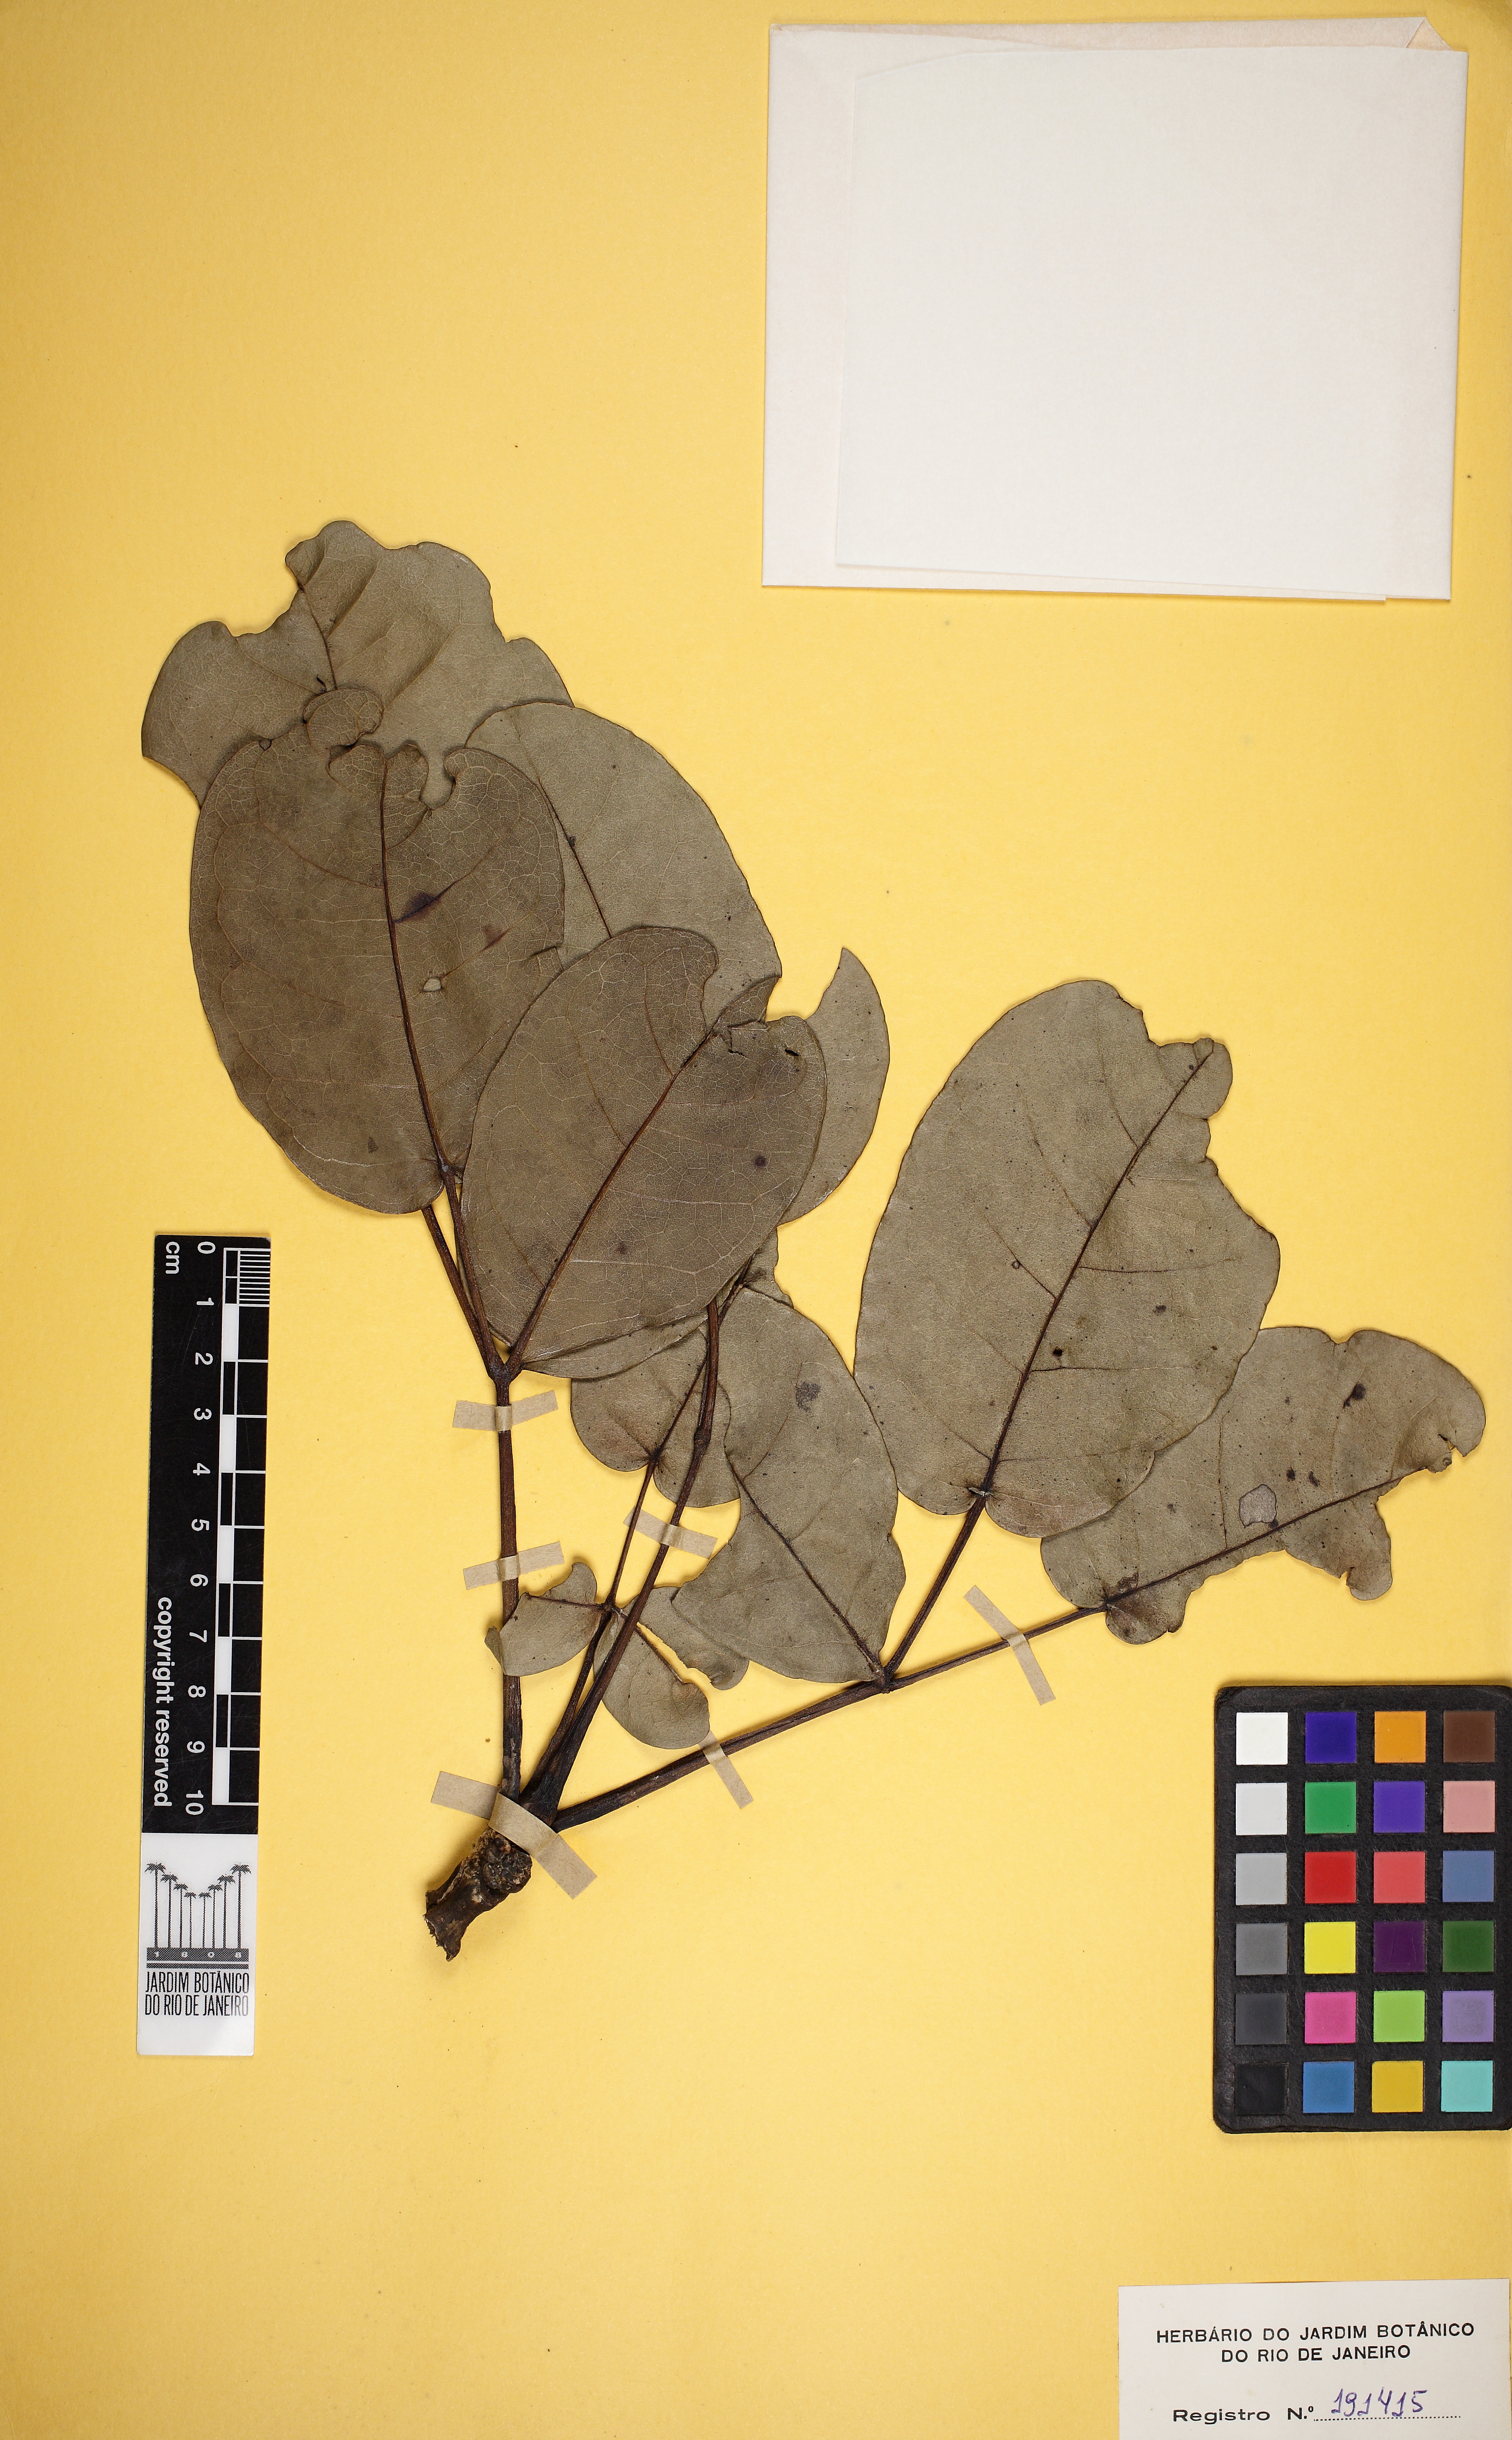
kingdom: Plantae
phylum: Tracheophyta
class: Magnoliopsida
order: Lamiales
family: Bignoniaceae
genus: Tabebuia
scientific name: Tabebuia aurea
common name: Caribbean trumpet-tree
